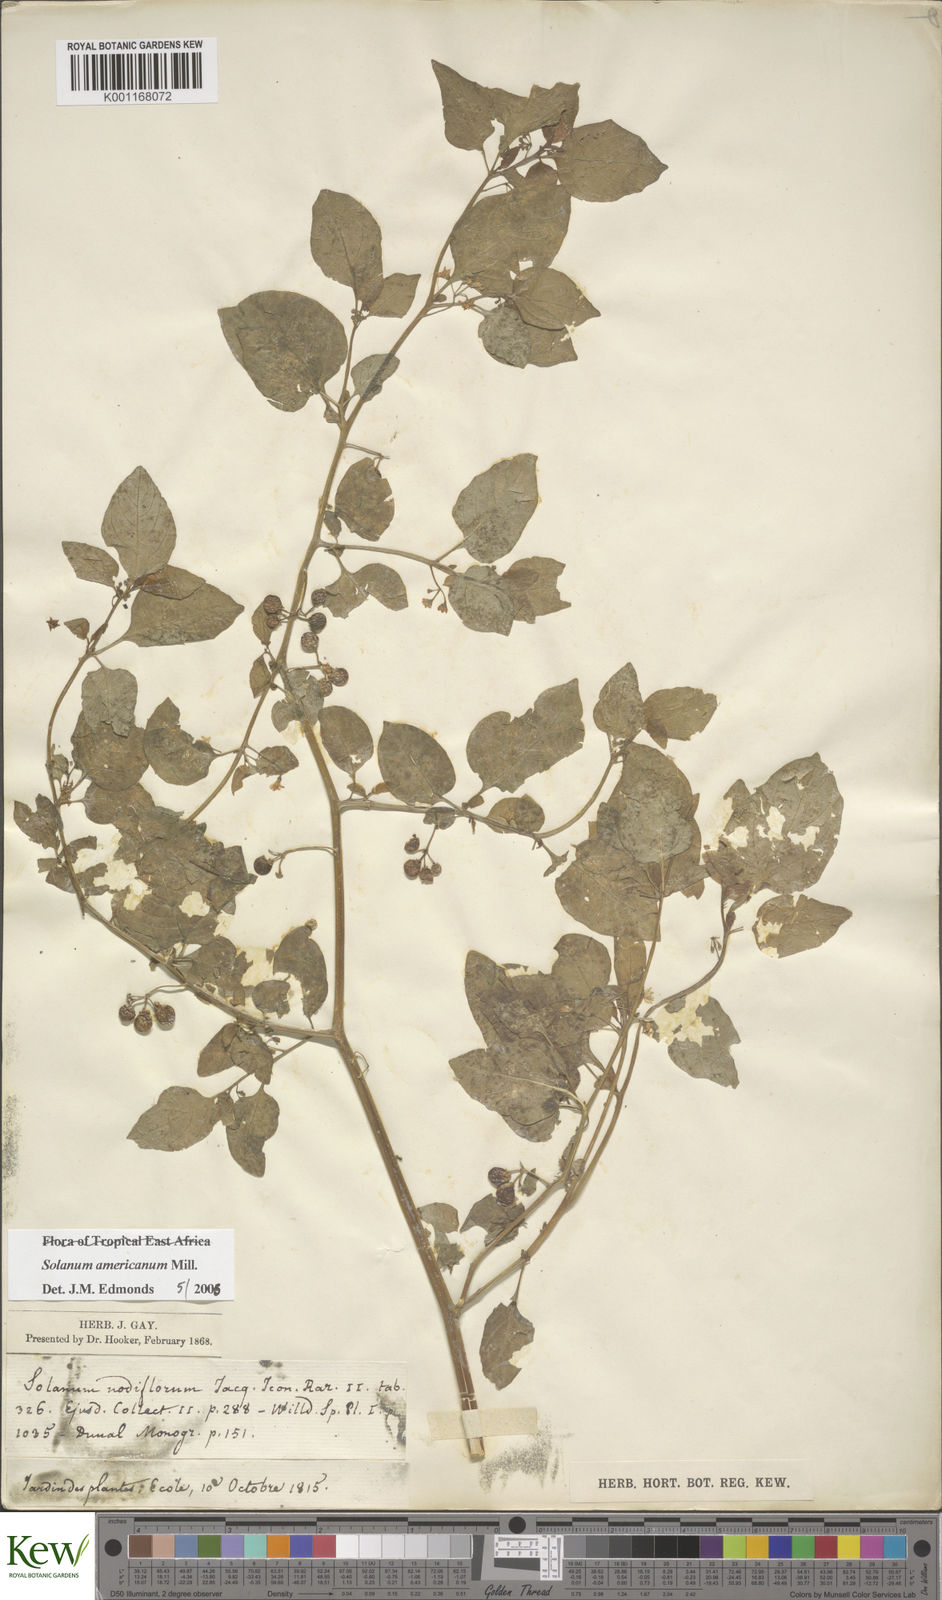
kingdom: Plantae
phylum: Tracheophyta
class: Magnoliopsida
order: Solanales
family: Solanaceae
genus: Solanum
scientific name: Solanum americanum
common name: American black nightshade
